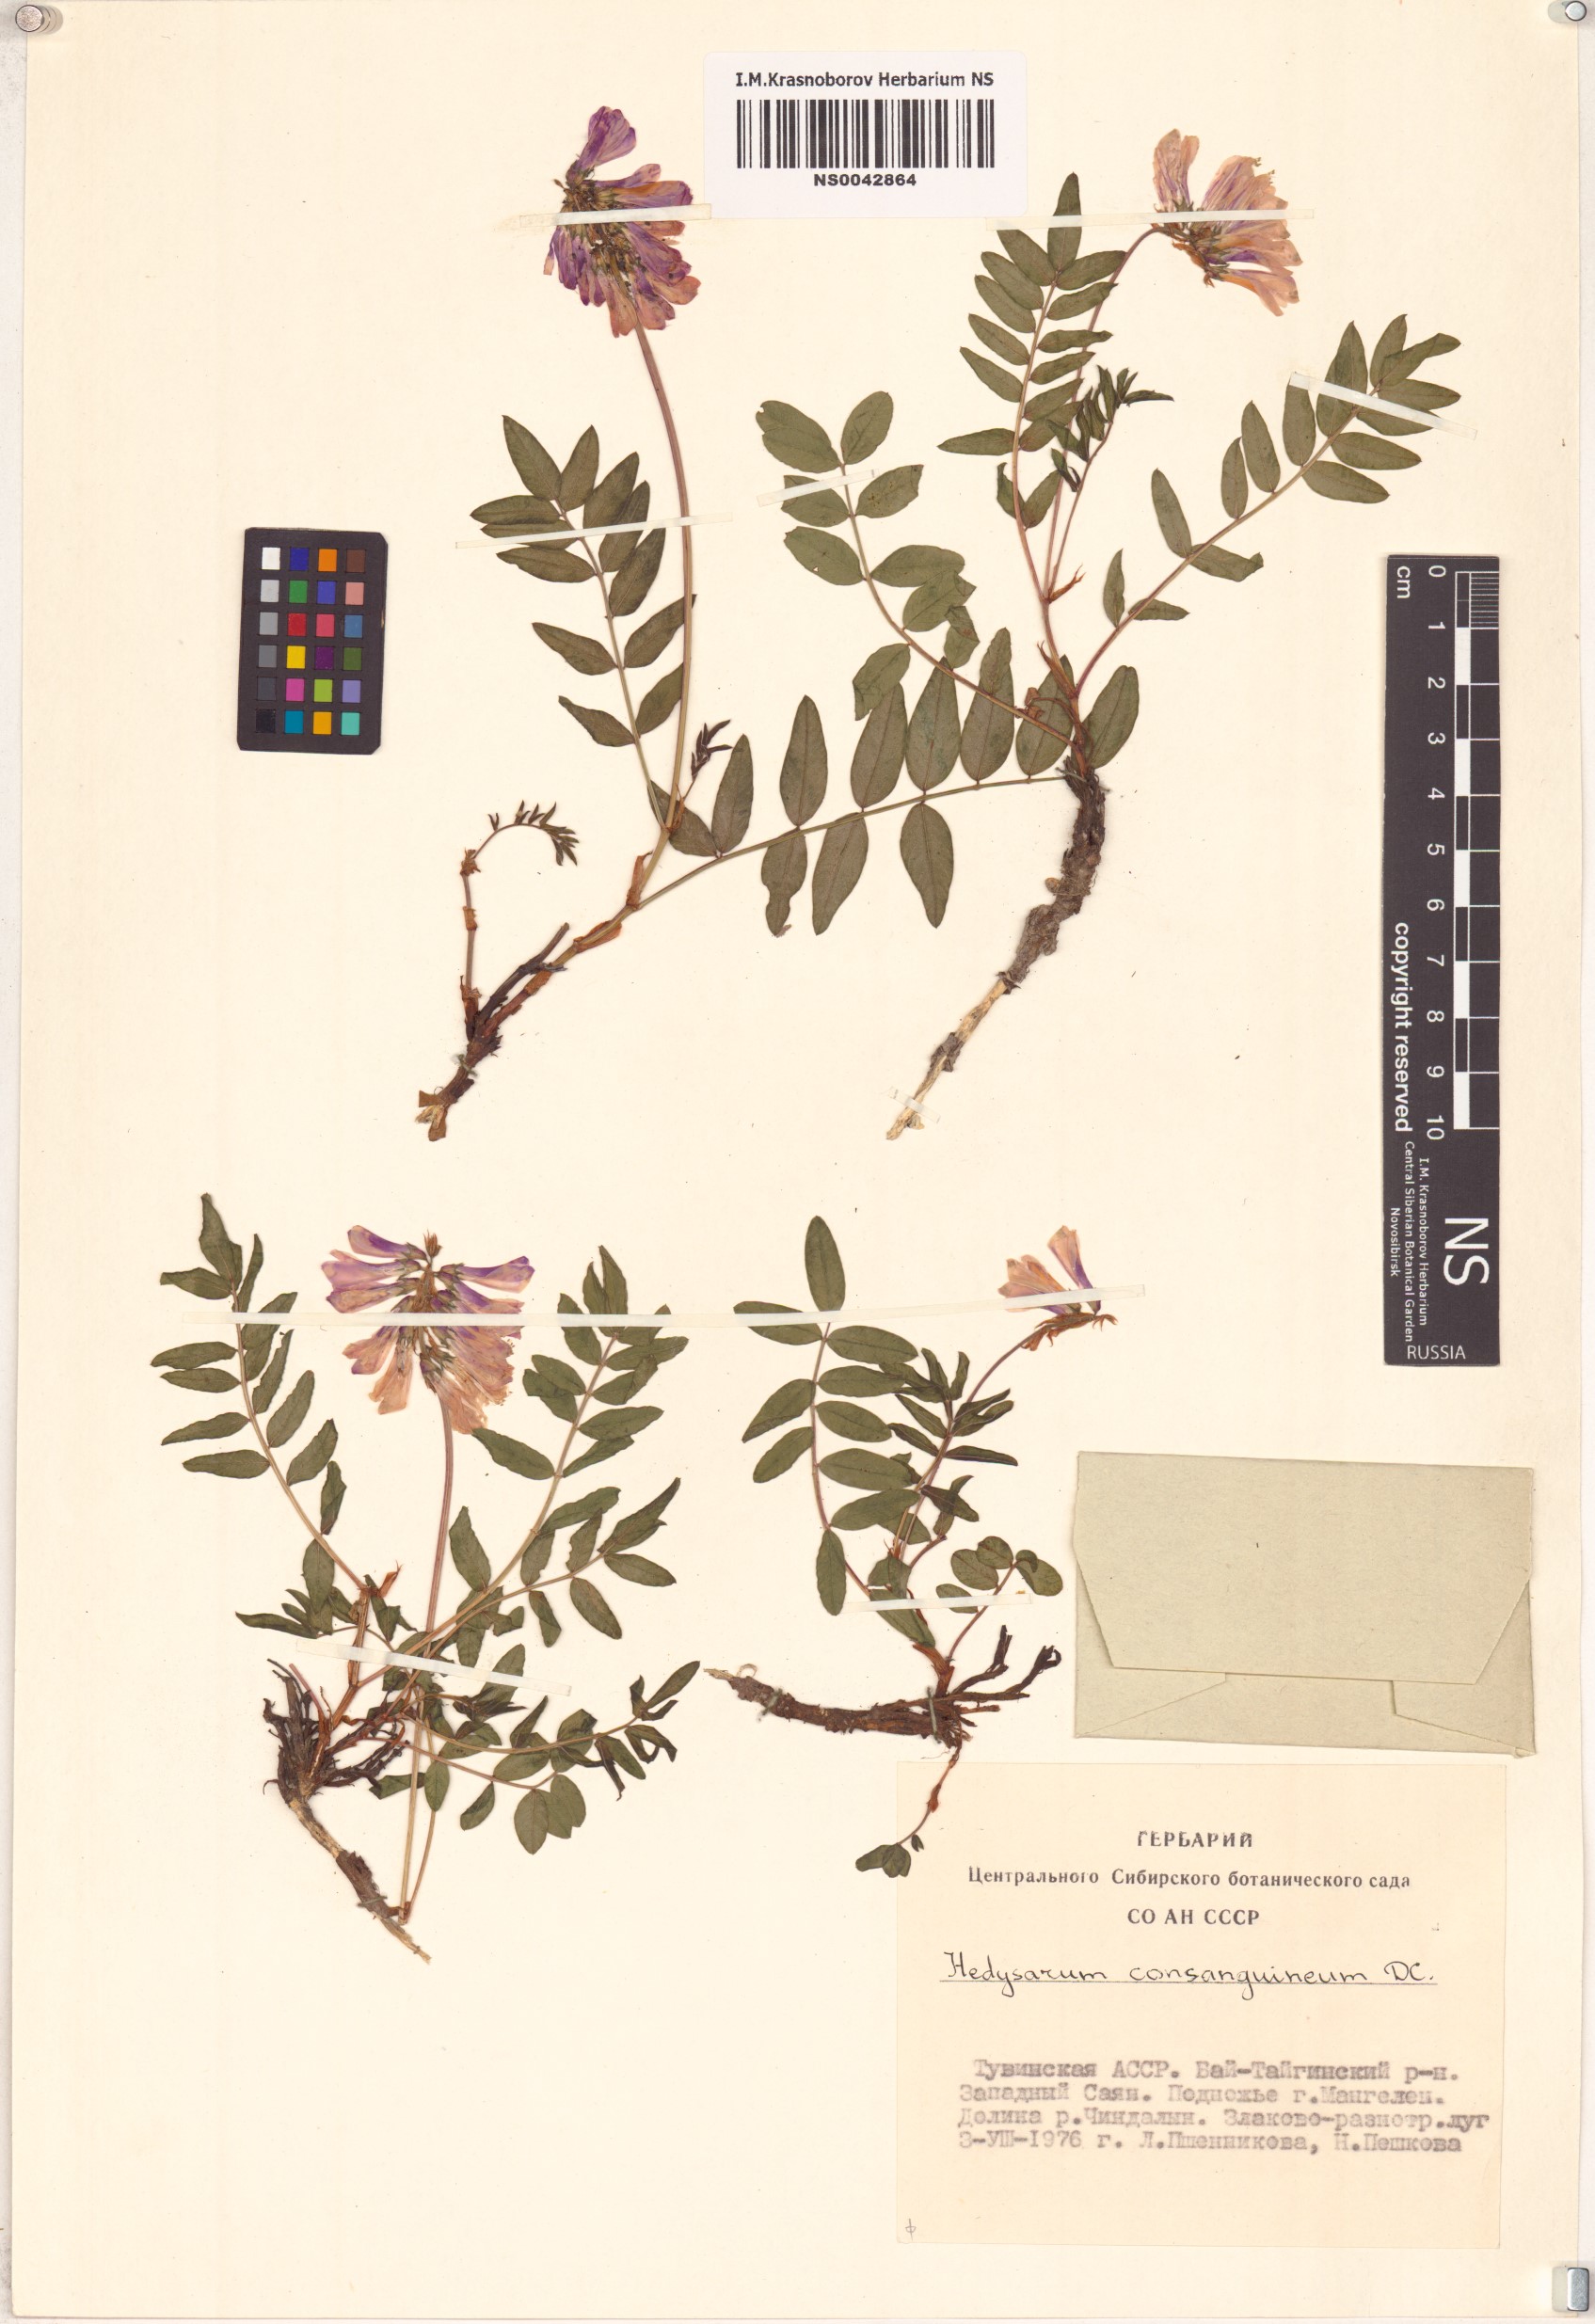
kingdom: Plantae
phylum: Tracheophyta
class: Magnoliopsida
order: Fabales
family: Fabaceae
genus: Hedysarum
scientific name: Hedysarum consanguineum
